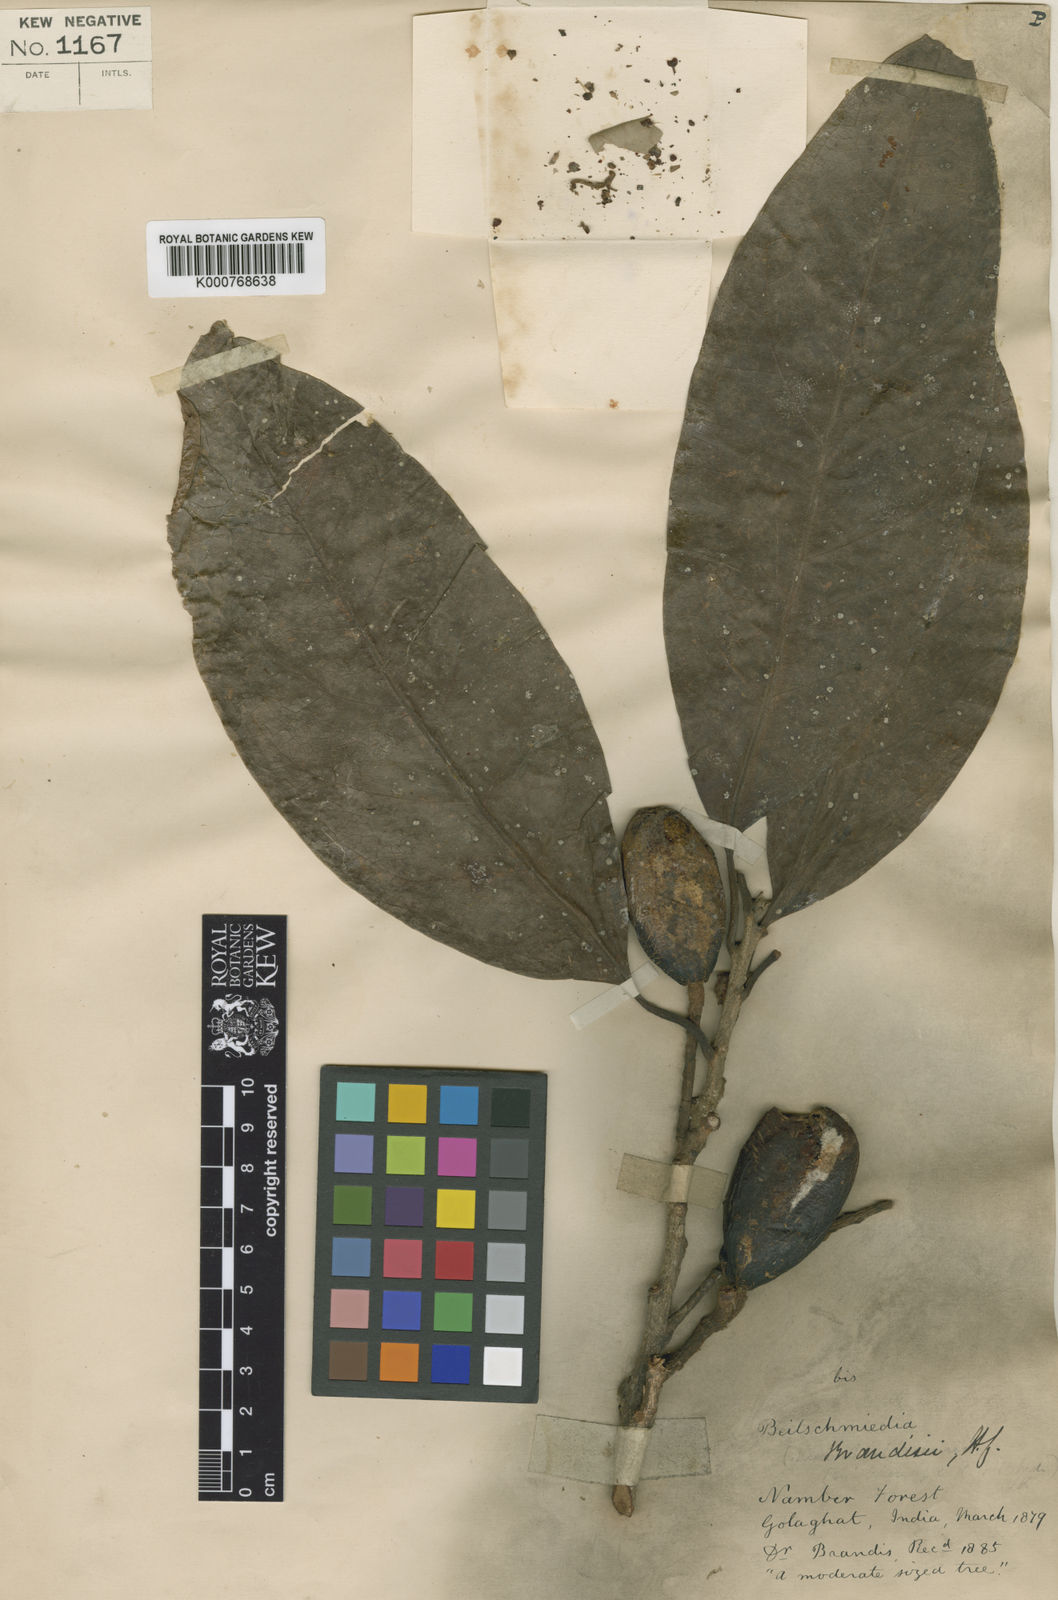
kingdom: Plantae
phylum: Tracheophyta
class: Magnoliopsida
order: Laurales
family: Lauraceae
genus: Beilschmiedia
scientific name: Beilschmiedia brandisii
